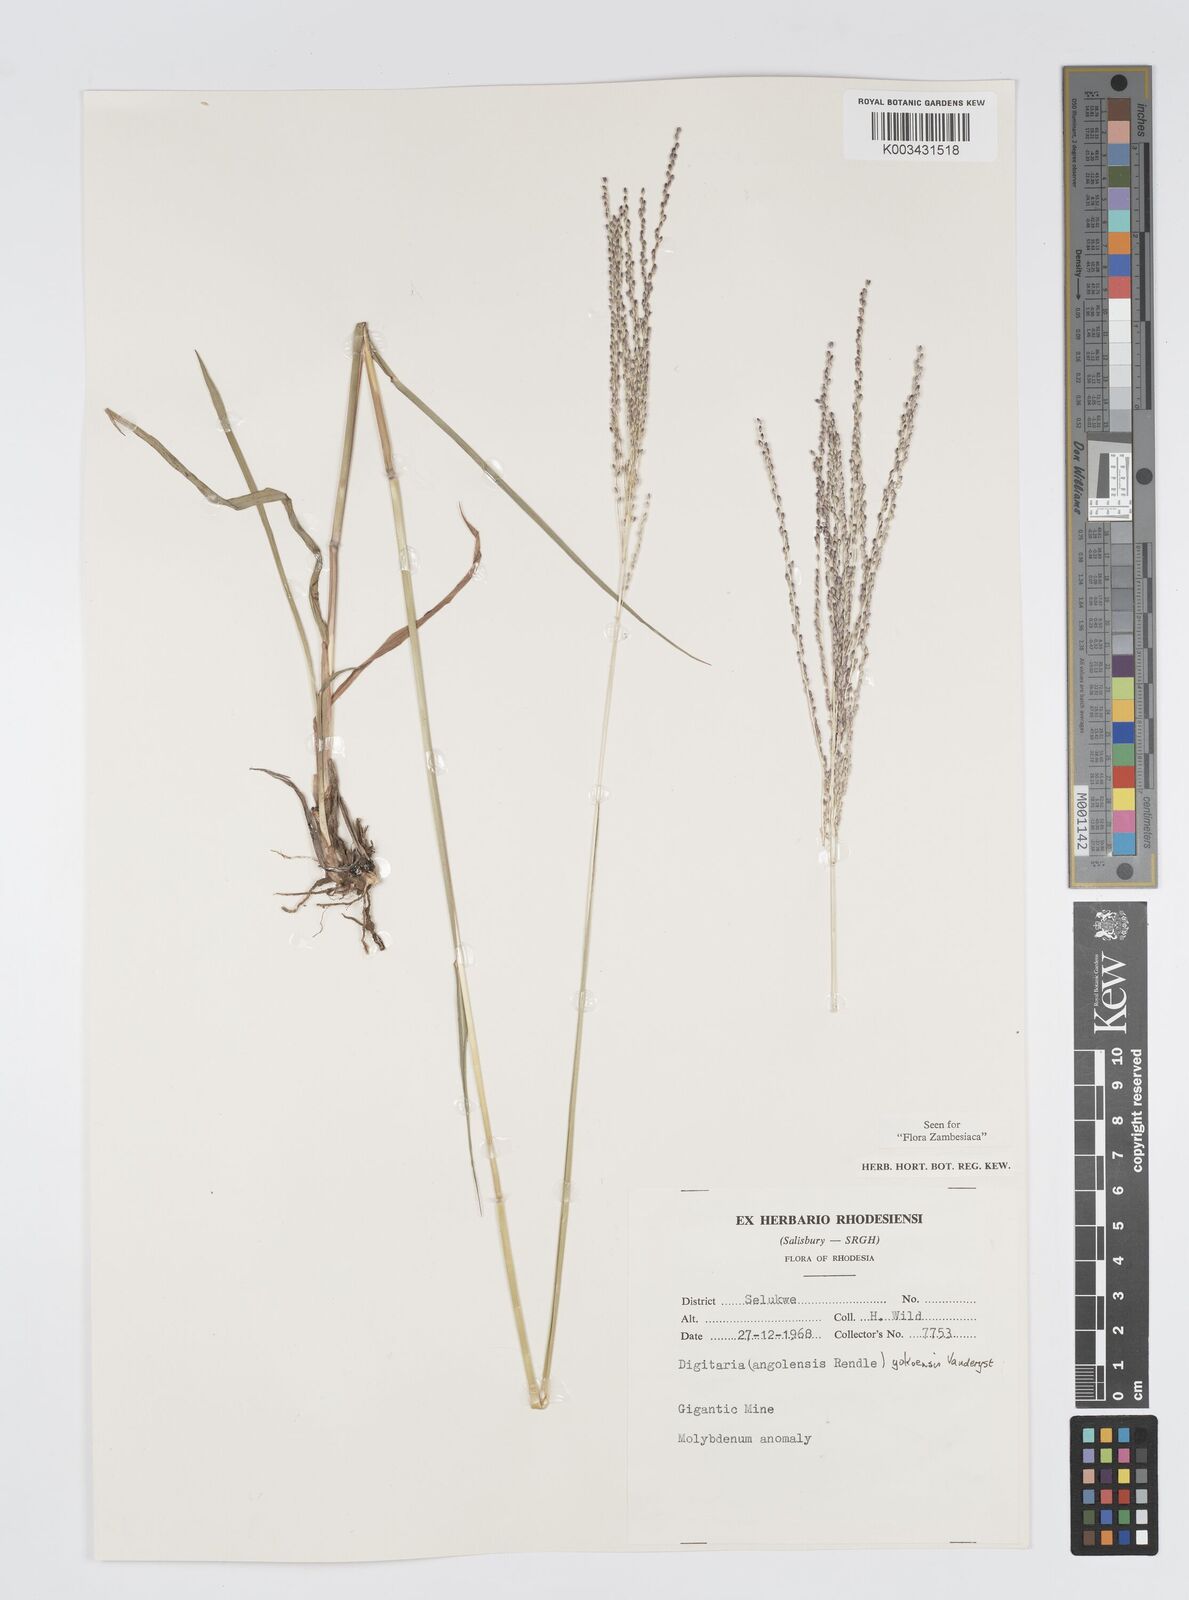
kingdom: Plantae
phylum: Tracheophyta
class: Liliopsida
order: Poales
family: Poaceae
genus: Digitaria
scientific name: Digitaria gazensis
